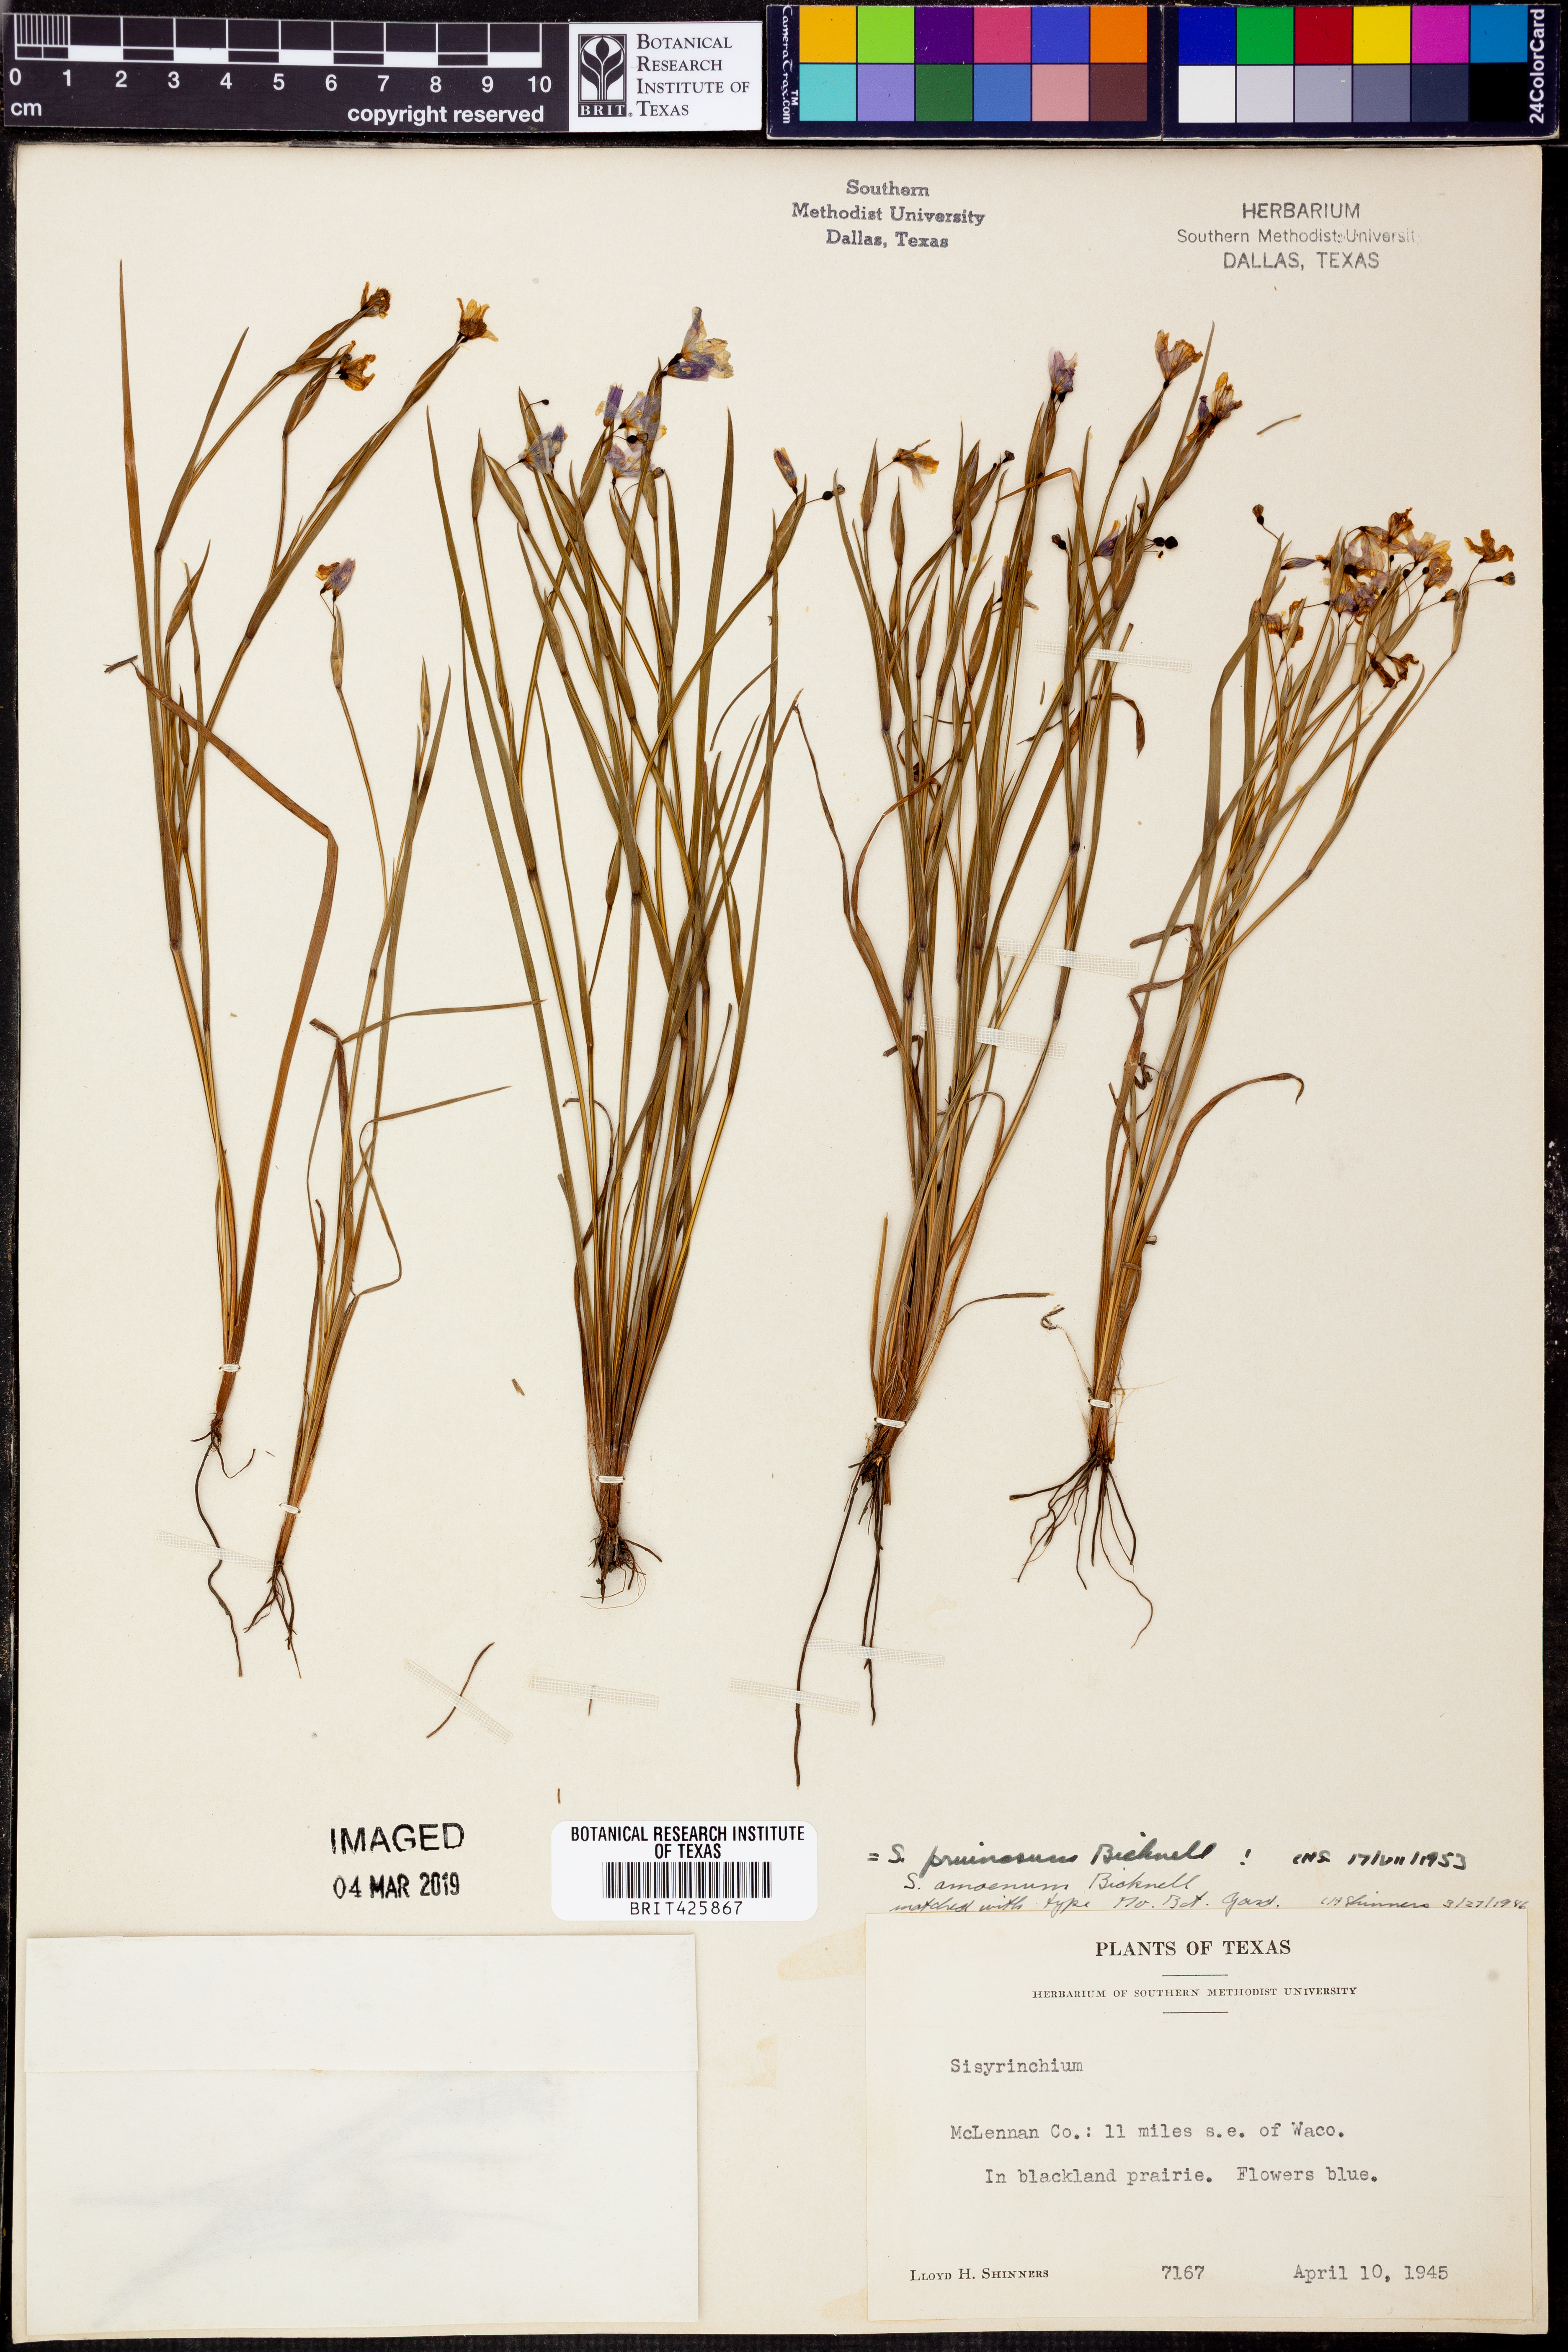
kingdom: Plantae
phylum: Tracheophyta
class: Liliopsida
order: Asparagales
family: Iridaceae
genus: Sisyrinchium
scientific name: Sisyrinchium pruinosum
